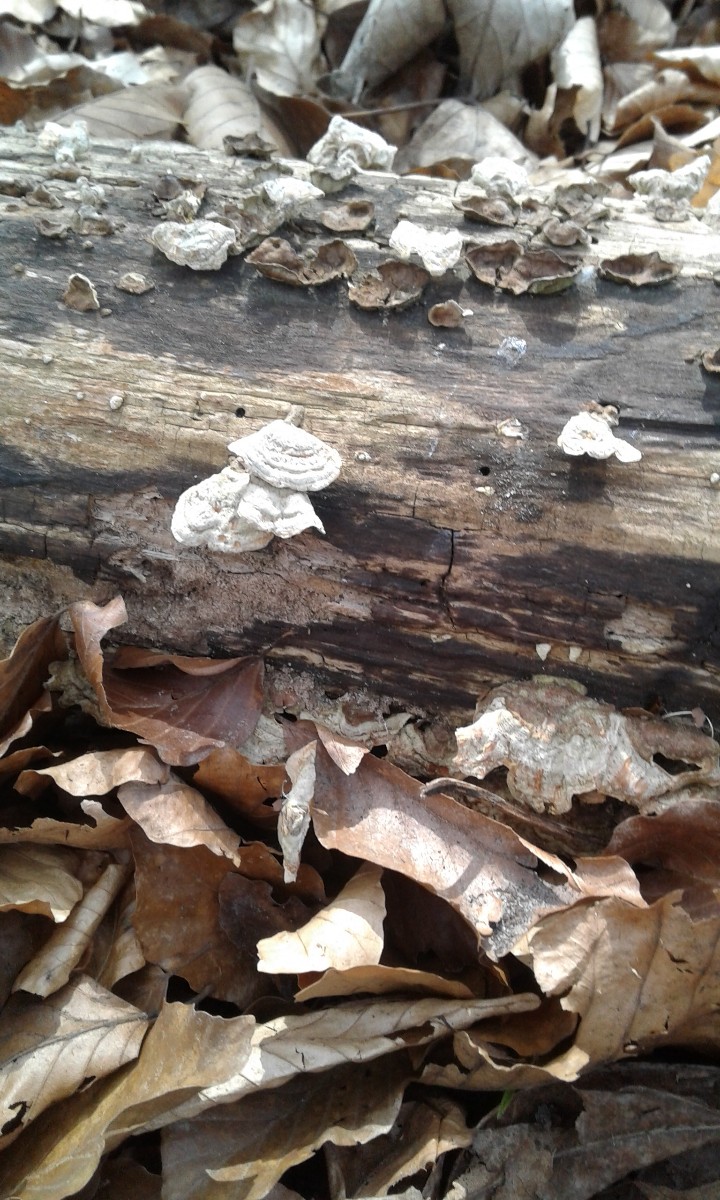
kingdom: Fungi
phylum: Basidiomycota
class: Agaricomycetes
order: Russulales
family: Stereaceae
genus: Stereum
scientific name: Stereum subtomentosum
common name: smuk lædersvamp
